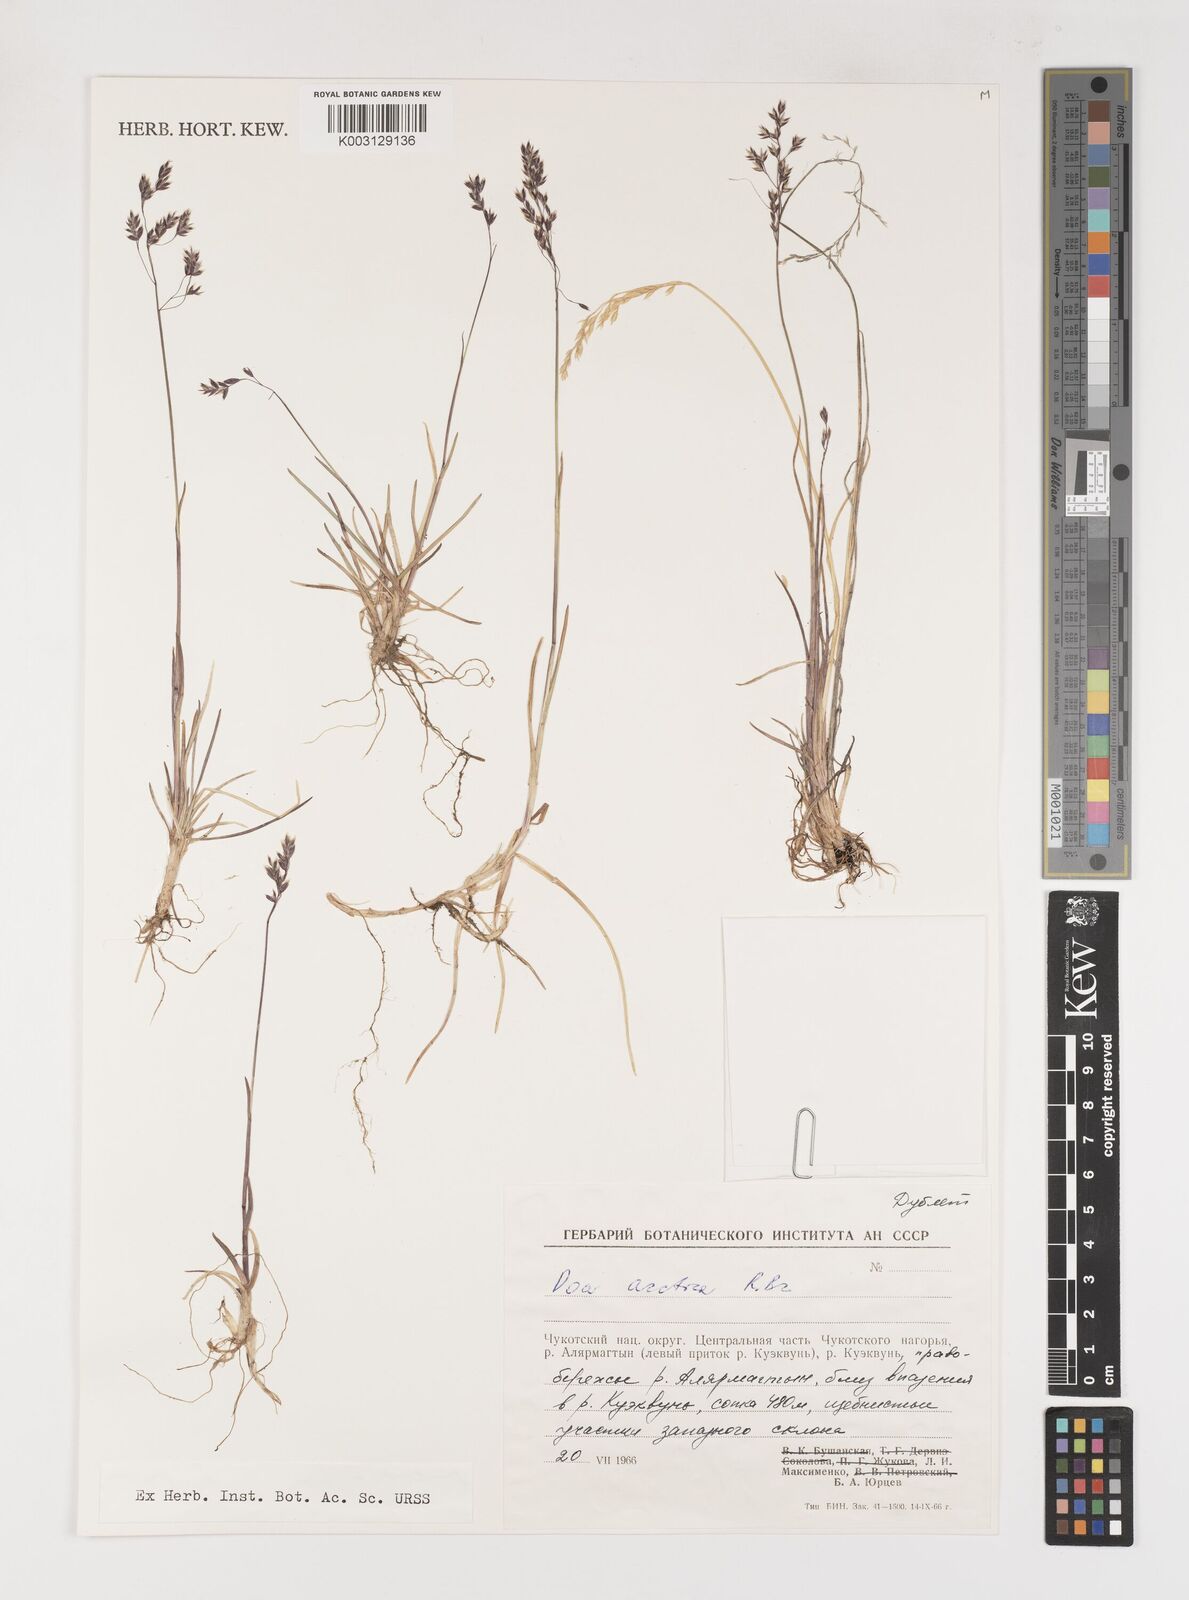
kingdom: Plantae
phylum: Tracheophyta
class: Liliopsida
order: Poales
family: Poaceae
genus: Poa
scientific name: Poa arctica
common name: Arctic bluegrass
